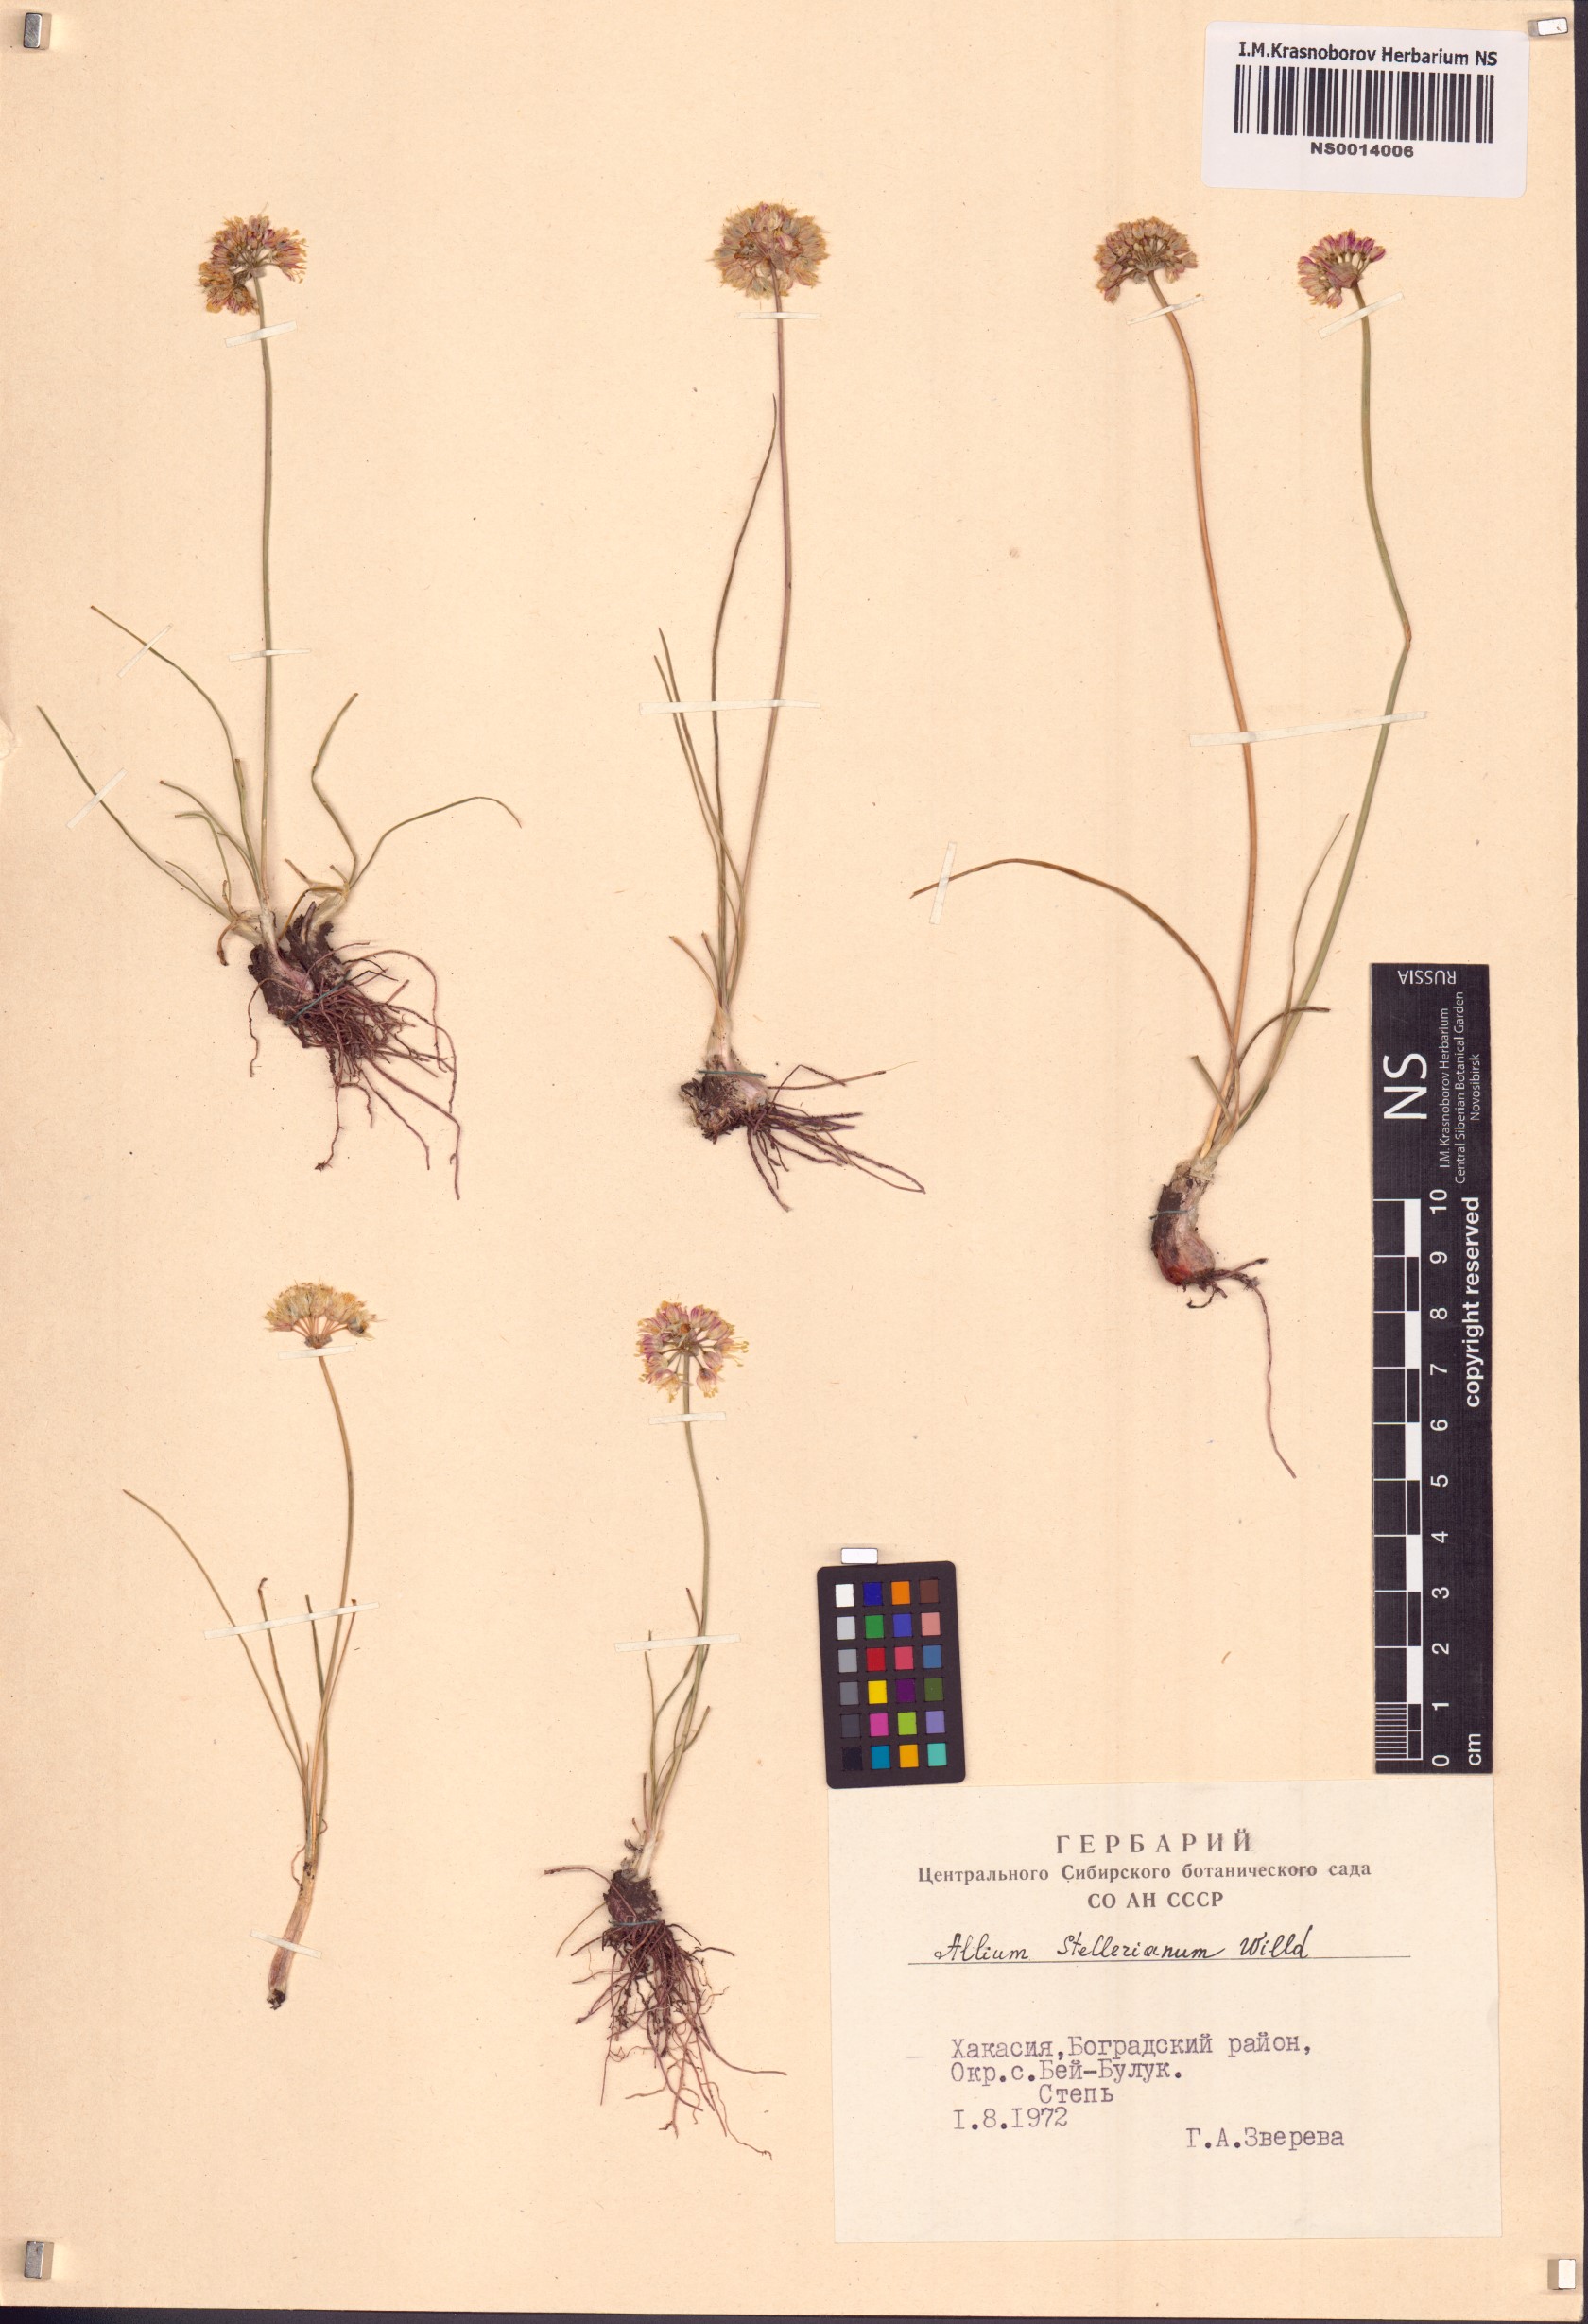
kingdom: Plantae
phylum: Tracheophyta
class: Liliopsida
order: Asparagales
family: Amaryllidaceae
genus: Allium
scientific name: Allium stellerianum
